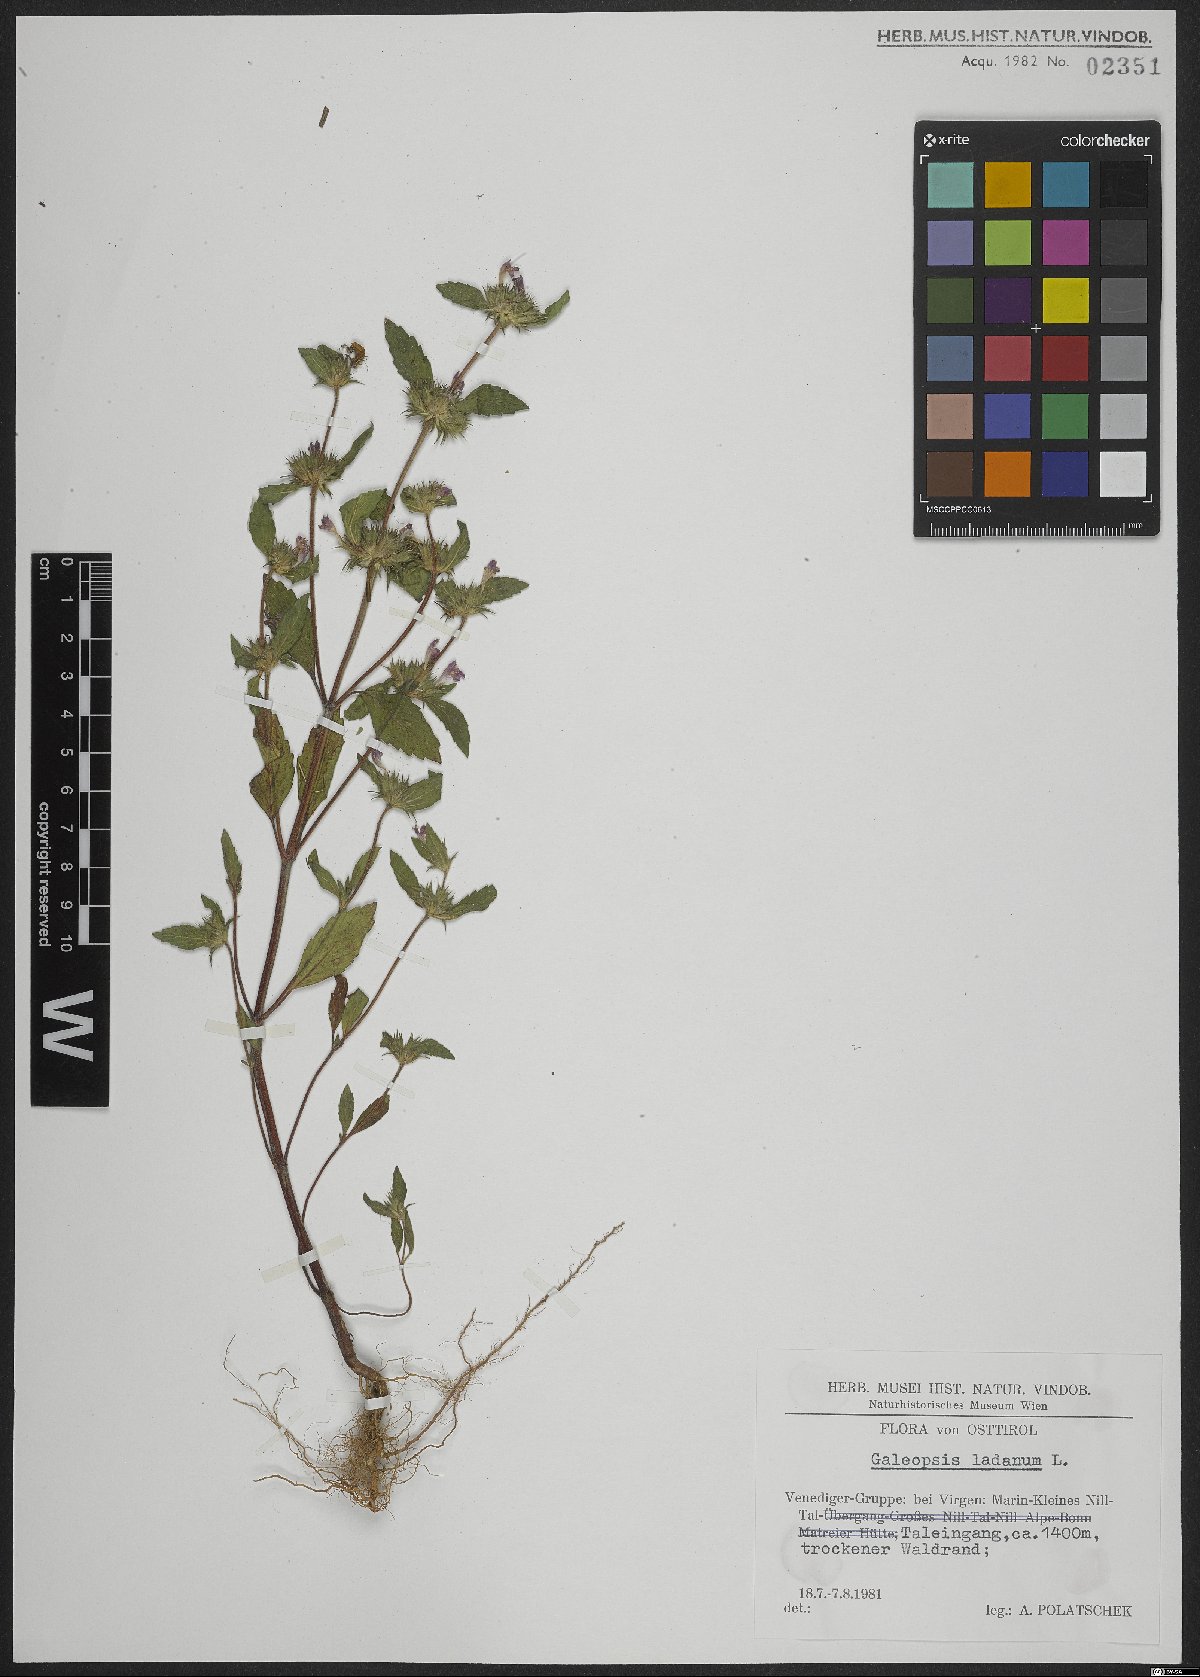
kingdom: Plantae
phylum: Tracheophyta
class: Magnoliopsida
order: Lamiales
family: Lamiaceae
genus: Galeopsis
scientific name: Galeopsis ladanum
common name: Broad-leaved hemp-nettle
